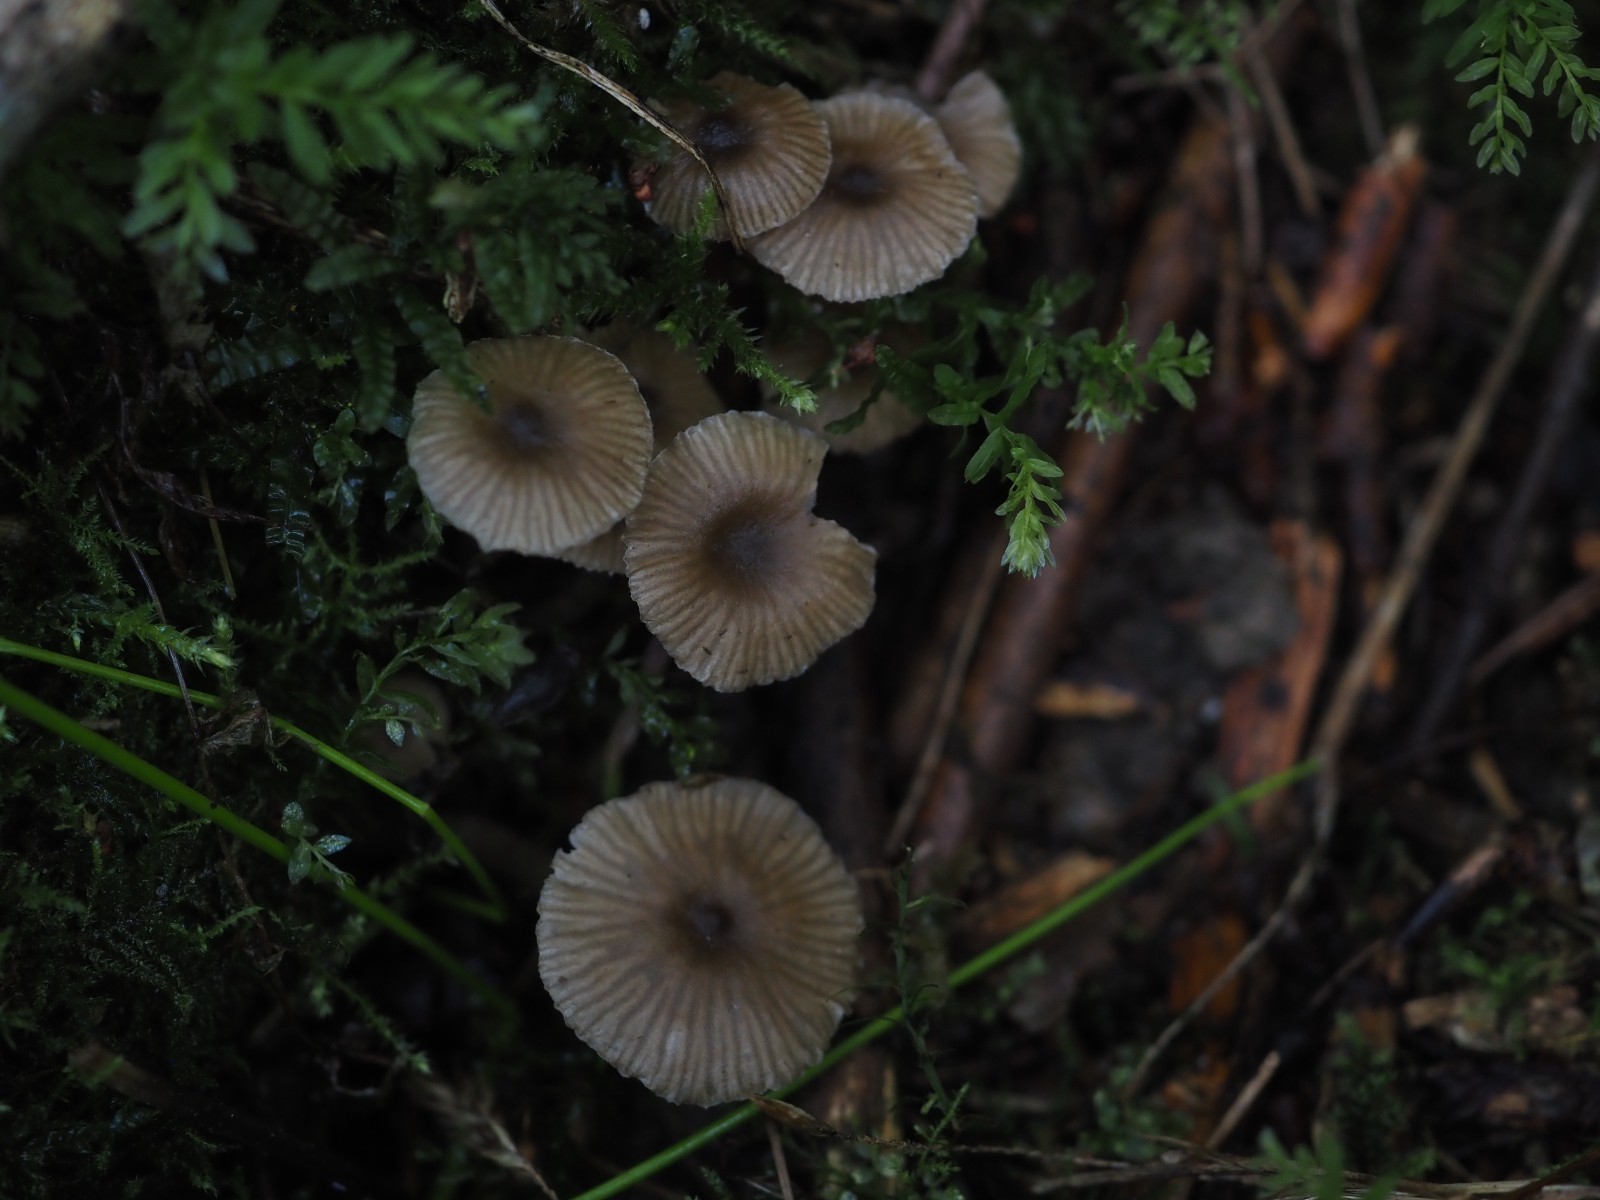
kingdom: Fungi
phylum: Basidiomycota
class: Agaricomycetes
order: Agaricales
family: Entolomataceae
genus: Entoloma
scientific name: Entoloma politum
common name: poleret rødblad
